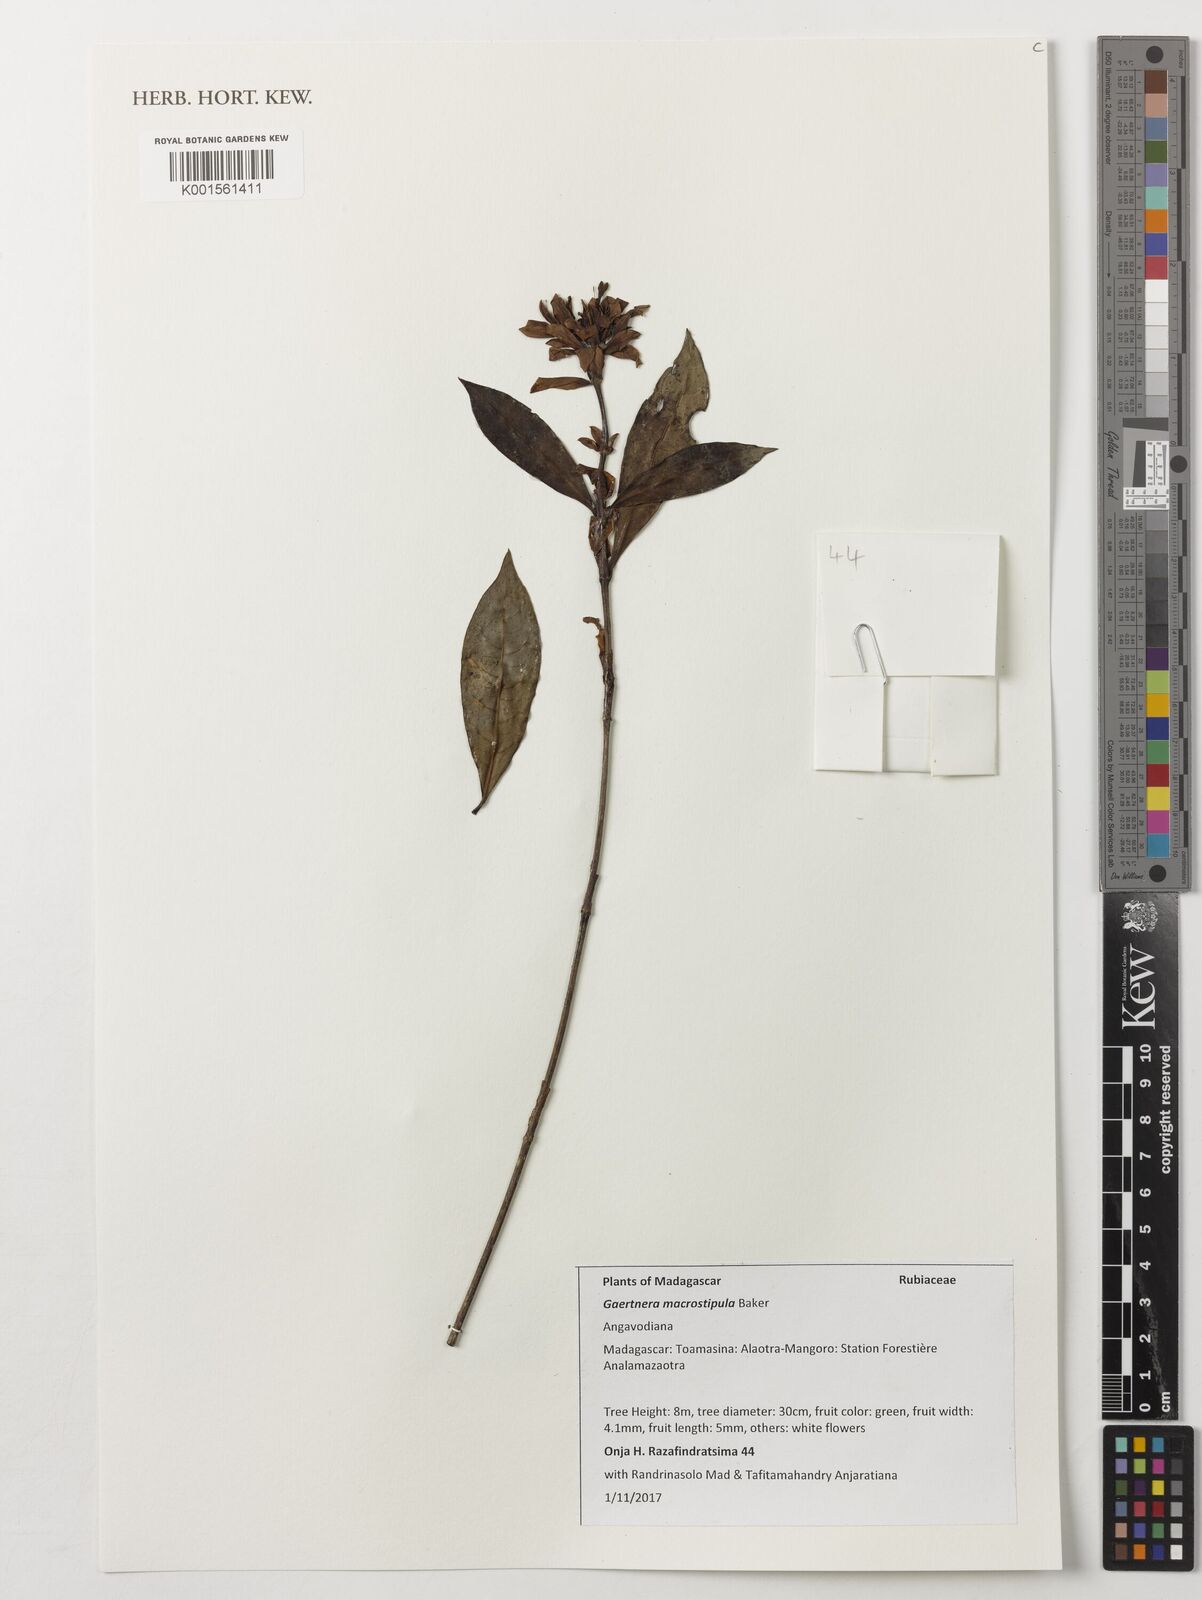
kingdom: Plantae
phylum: Tracheophyta
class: Magnoliopsida
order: Gentianales
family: Rubiaceae
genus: Gaertnera
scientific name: Gaertnera macrostipula
